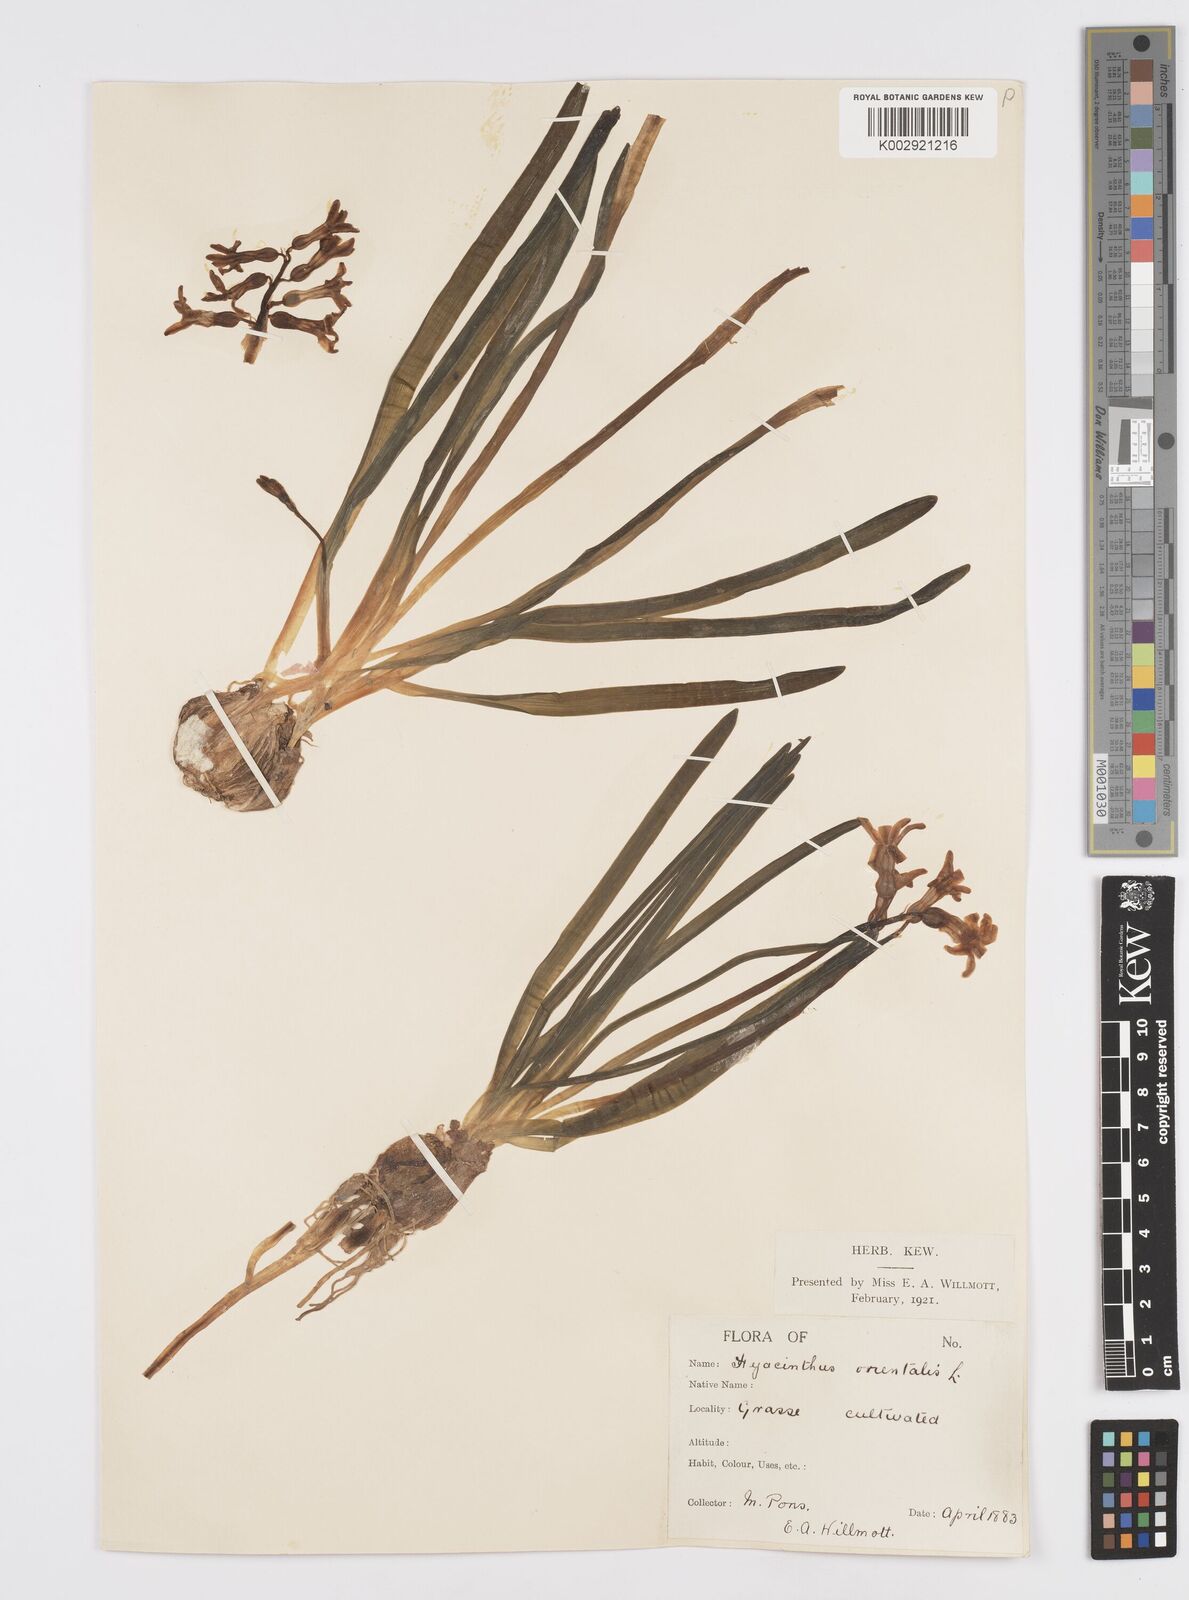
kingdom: Plantae
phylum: Tracheophyta
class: Liliopsida
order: Asparagales
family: Asparagaceae
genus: Hyacinthus
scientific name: Hyacinthus orientalis
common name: Hyacinth
